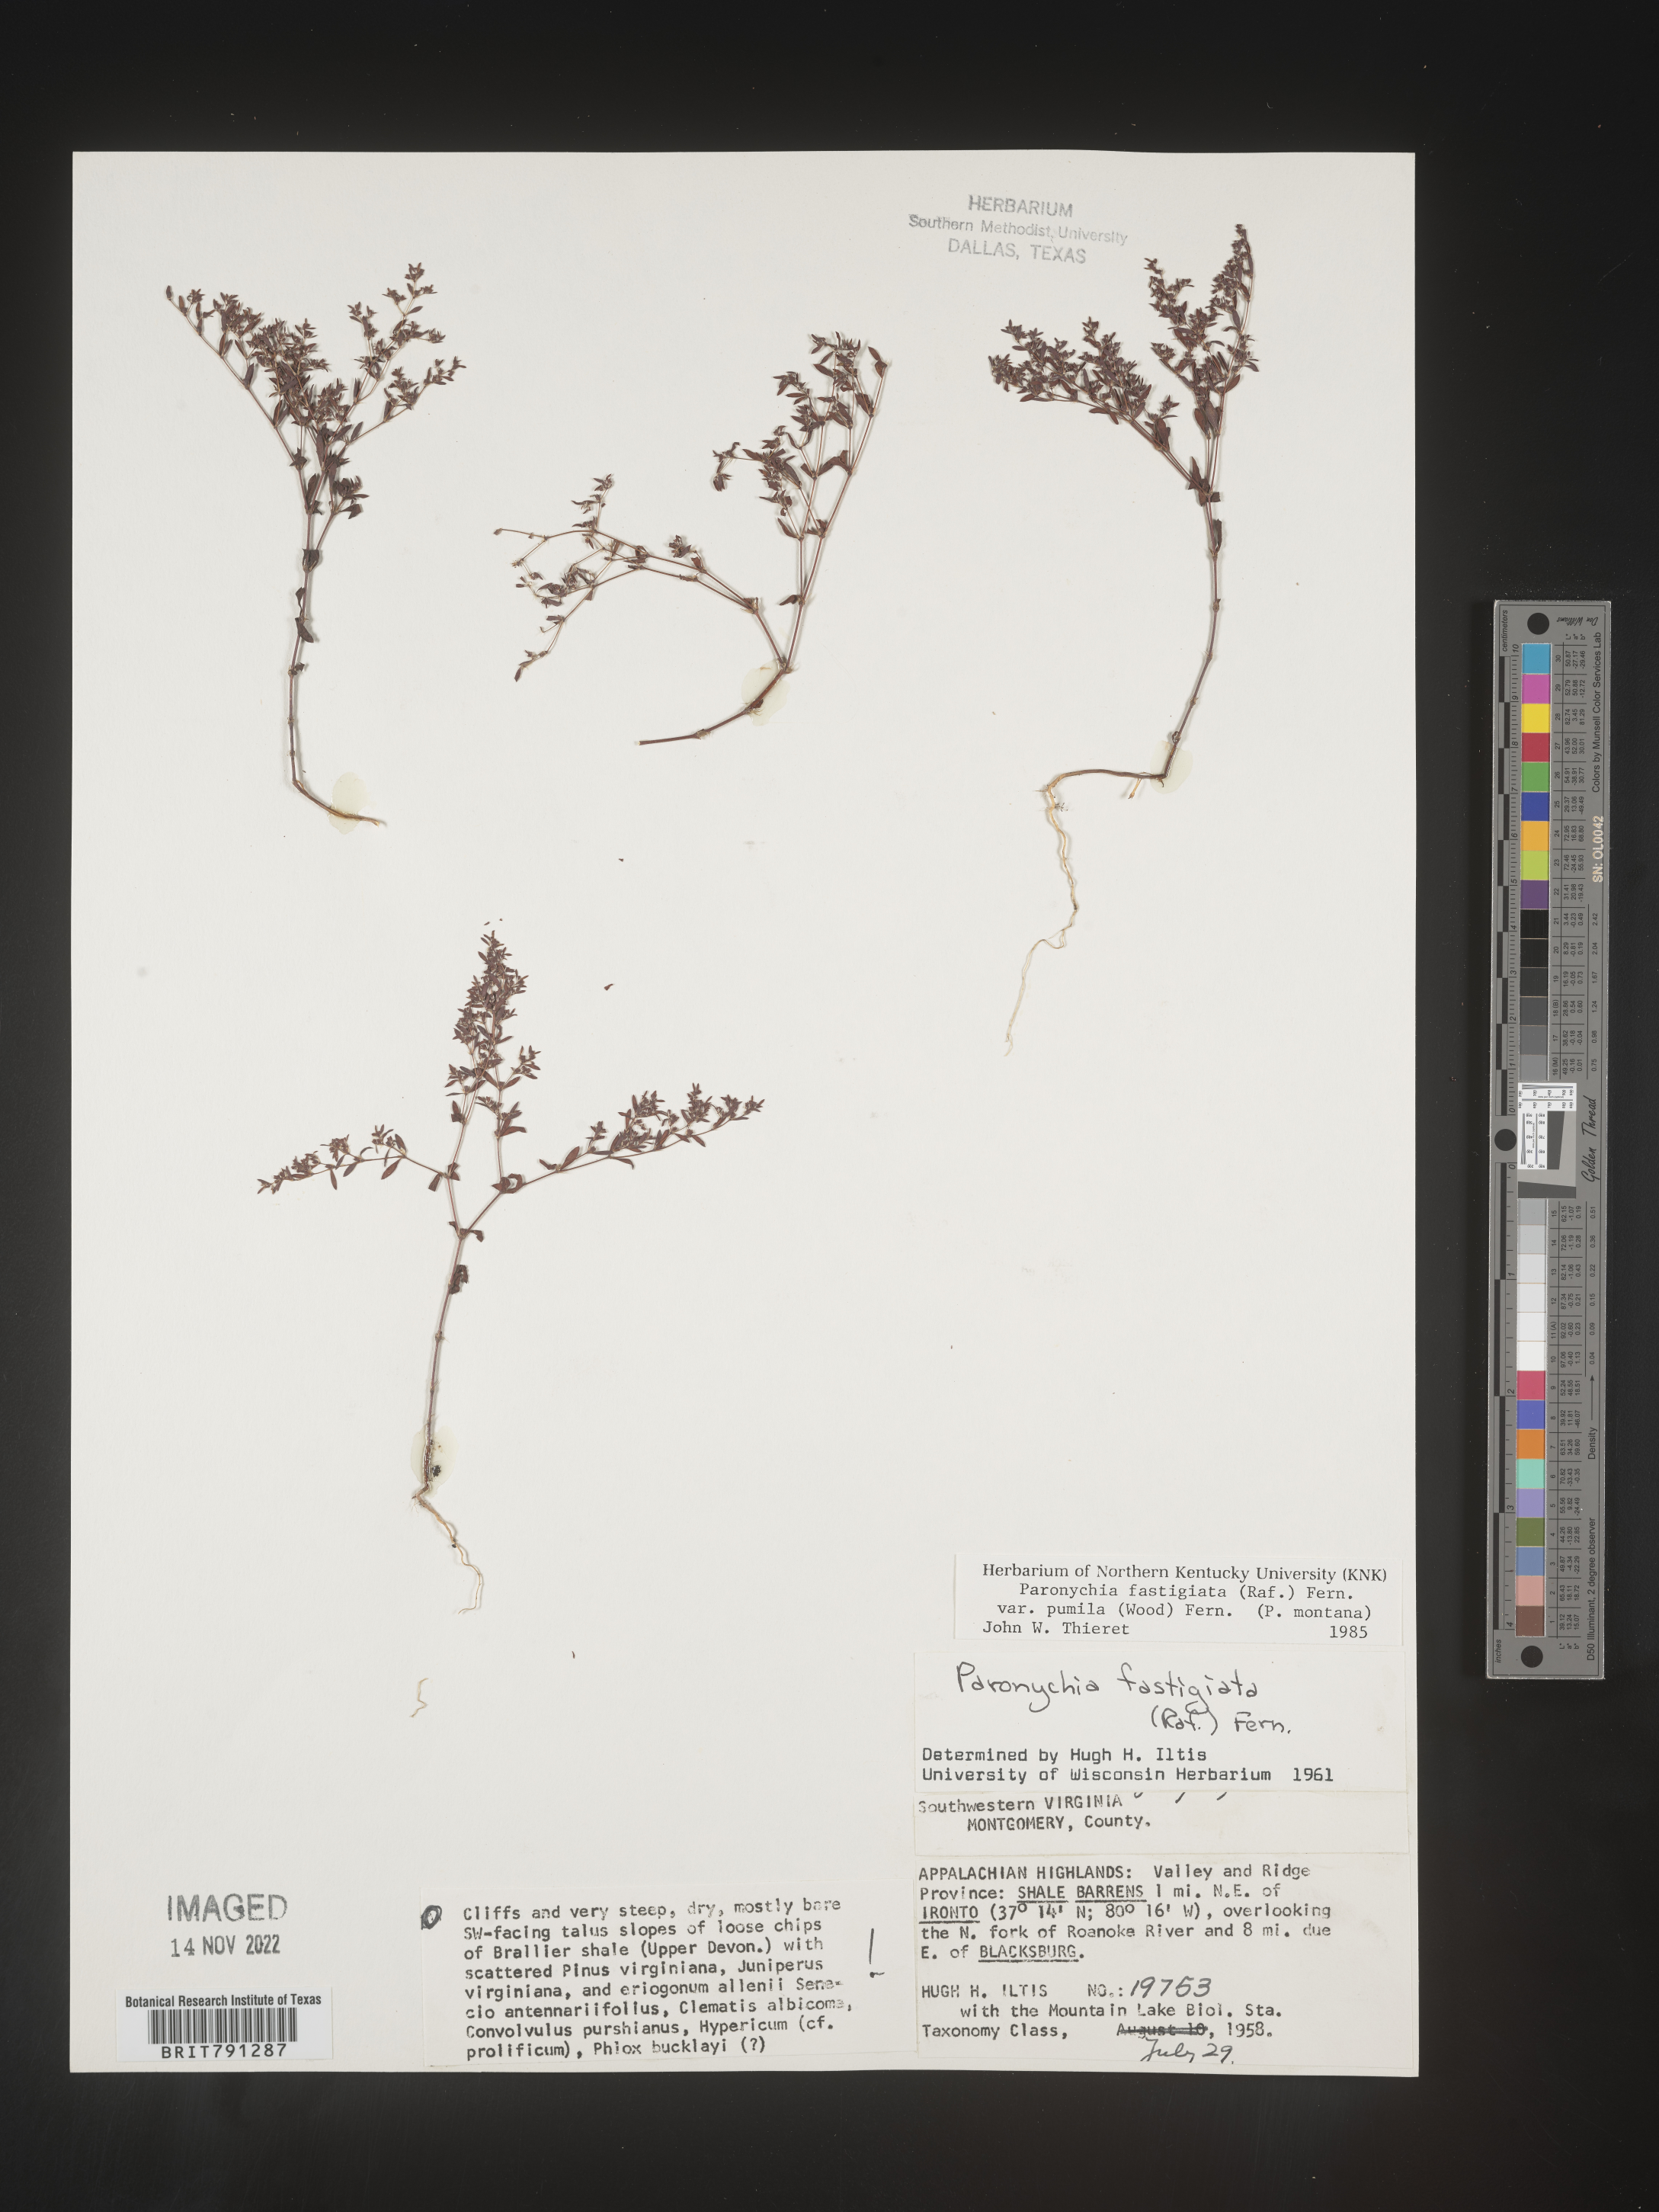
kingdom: Plantae
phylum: Tracheophyta
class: Magnoliopsida
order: Caryophyllales
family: Caryophyllaceae
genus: Paronychia
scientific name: Paronychia fastigiata
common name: Branching forked whitlow-wort
